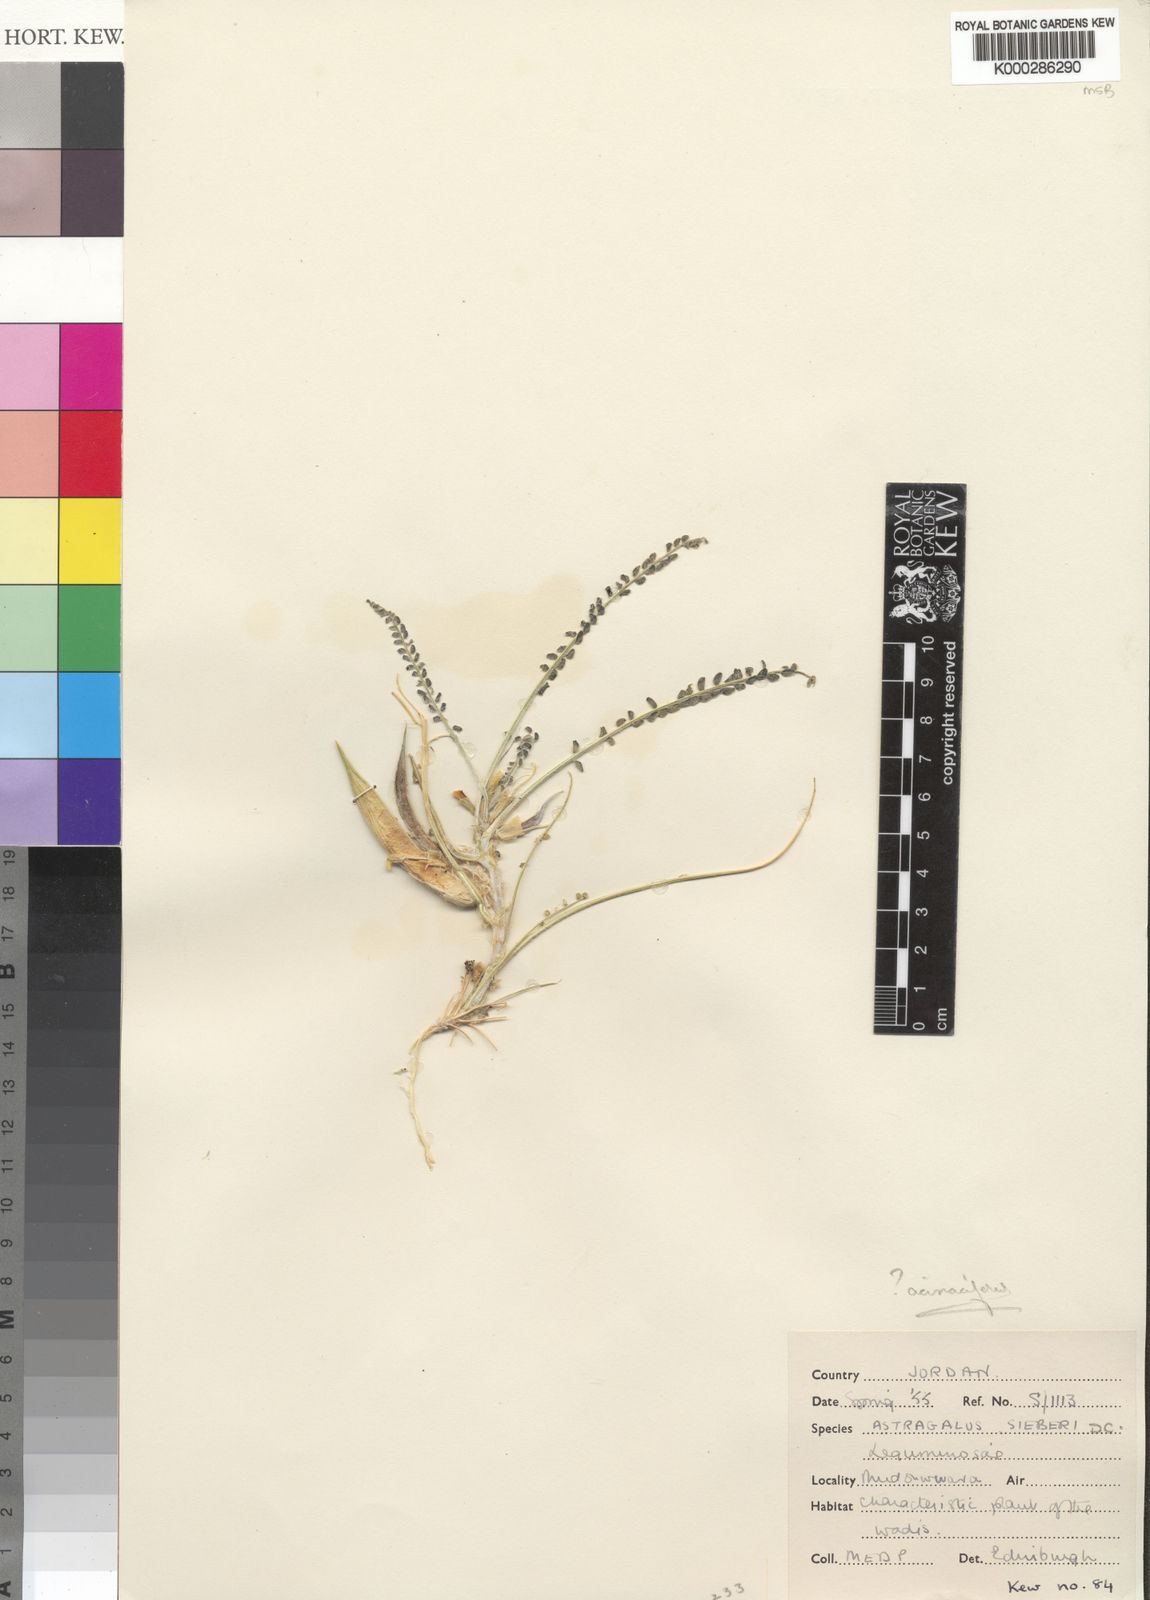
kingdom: Plantae
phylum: Tracheophyta
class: Magnoliopsida
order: Fabales
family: Fabaceae
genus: Astragalus
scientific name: Astragalus sieberi
